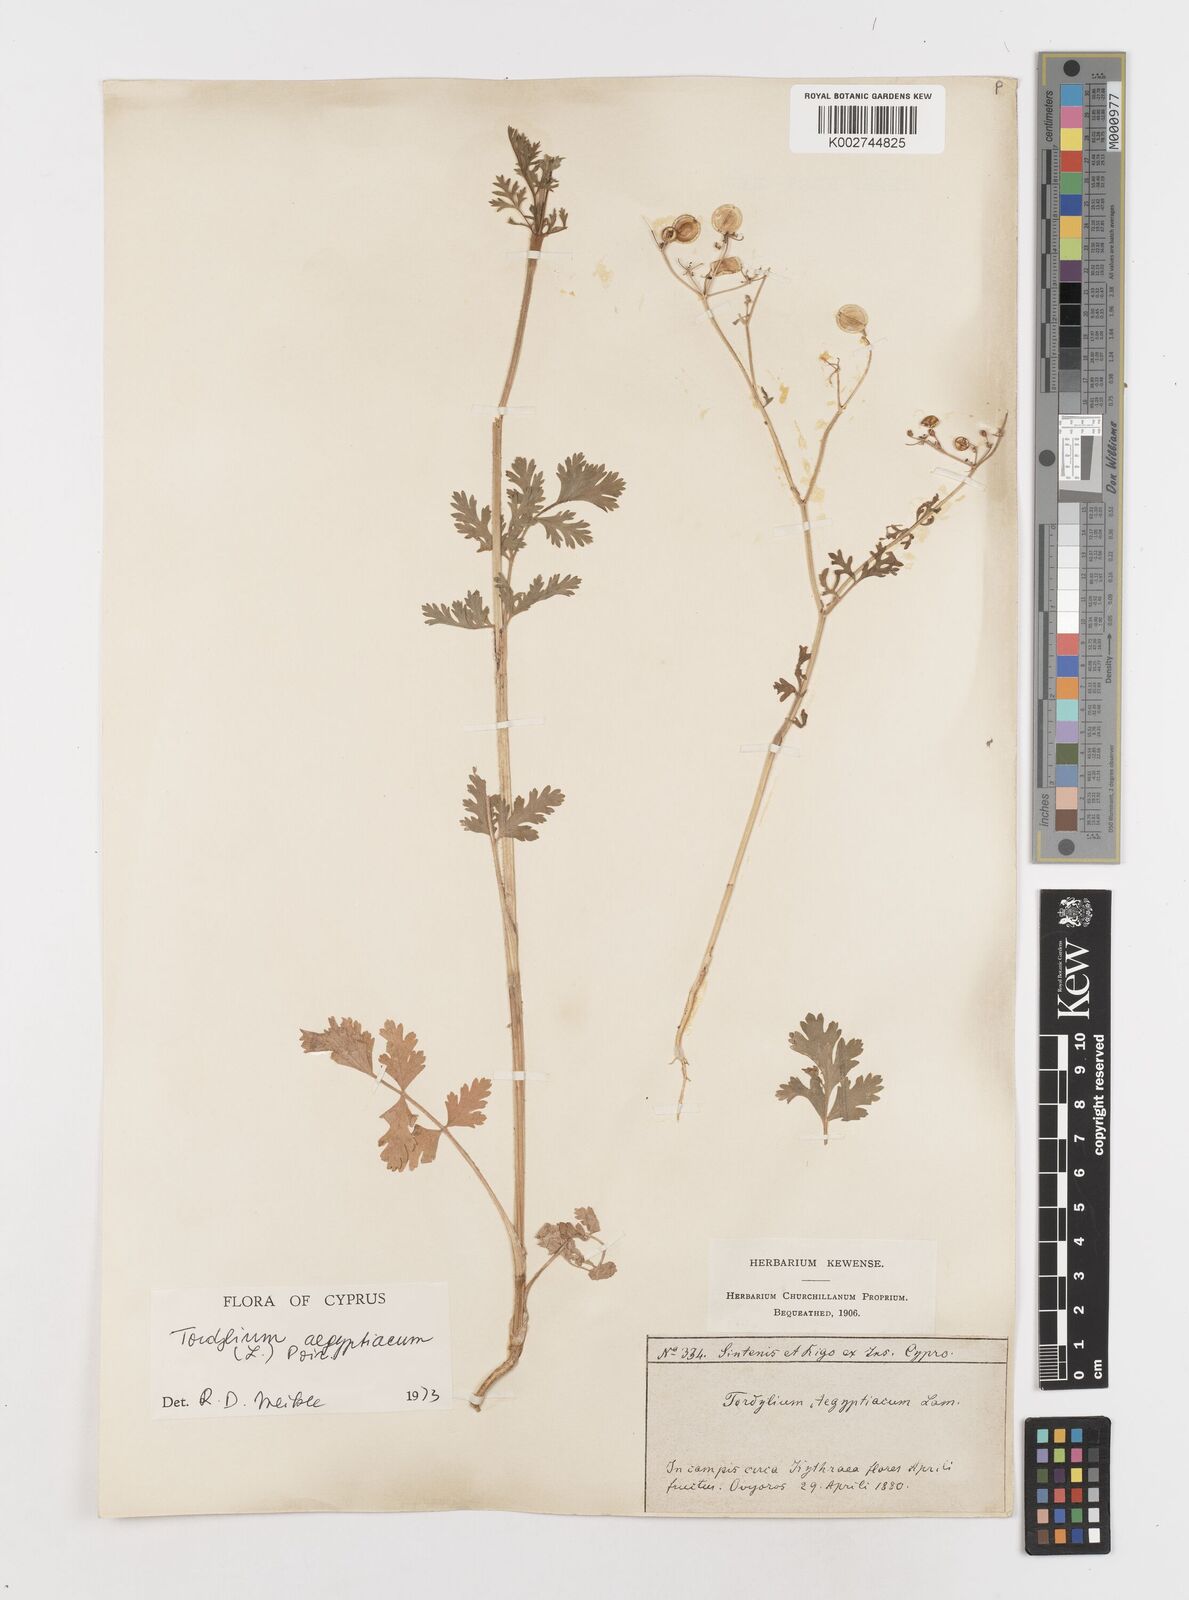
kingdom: Plantae
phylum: Tracheophyta
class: Magnoliopsida
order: Apiales
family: Apiaceae
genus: Tordylium
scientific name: Tordylium aegyptiacum
